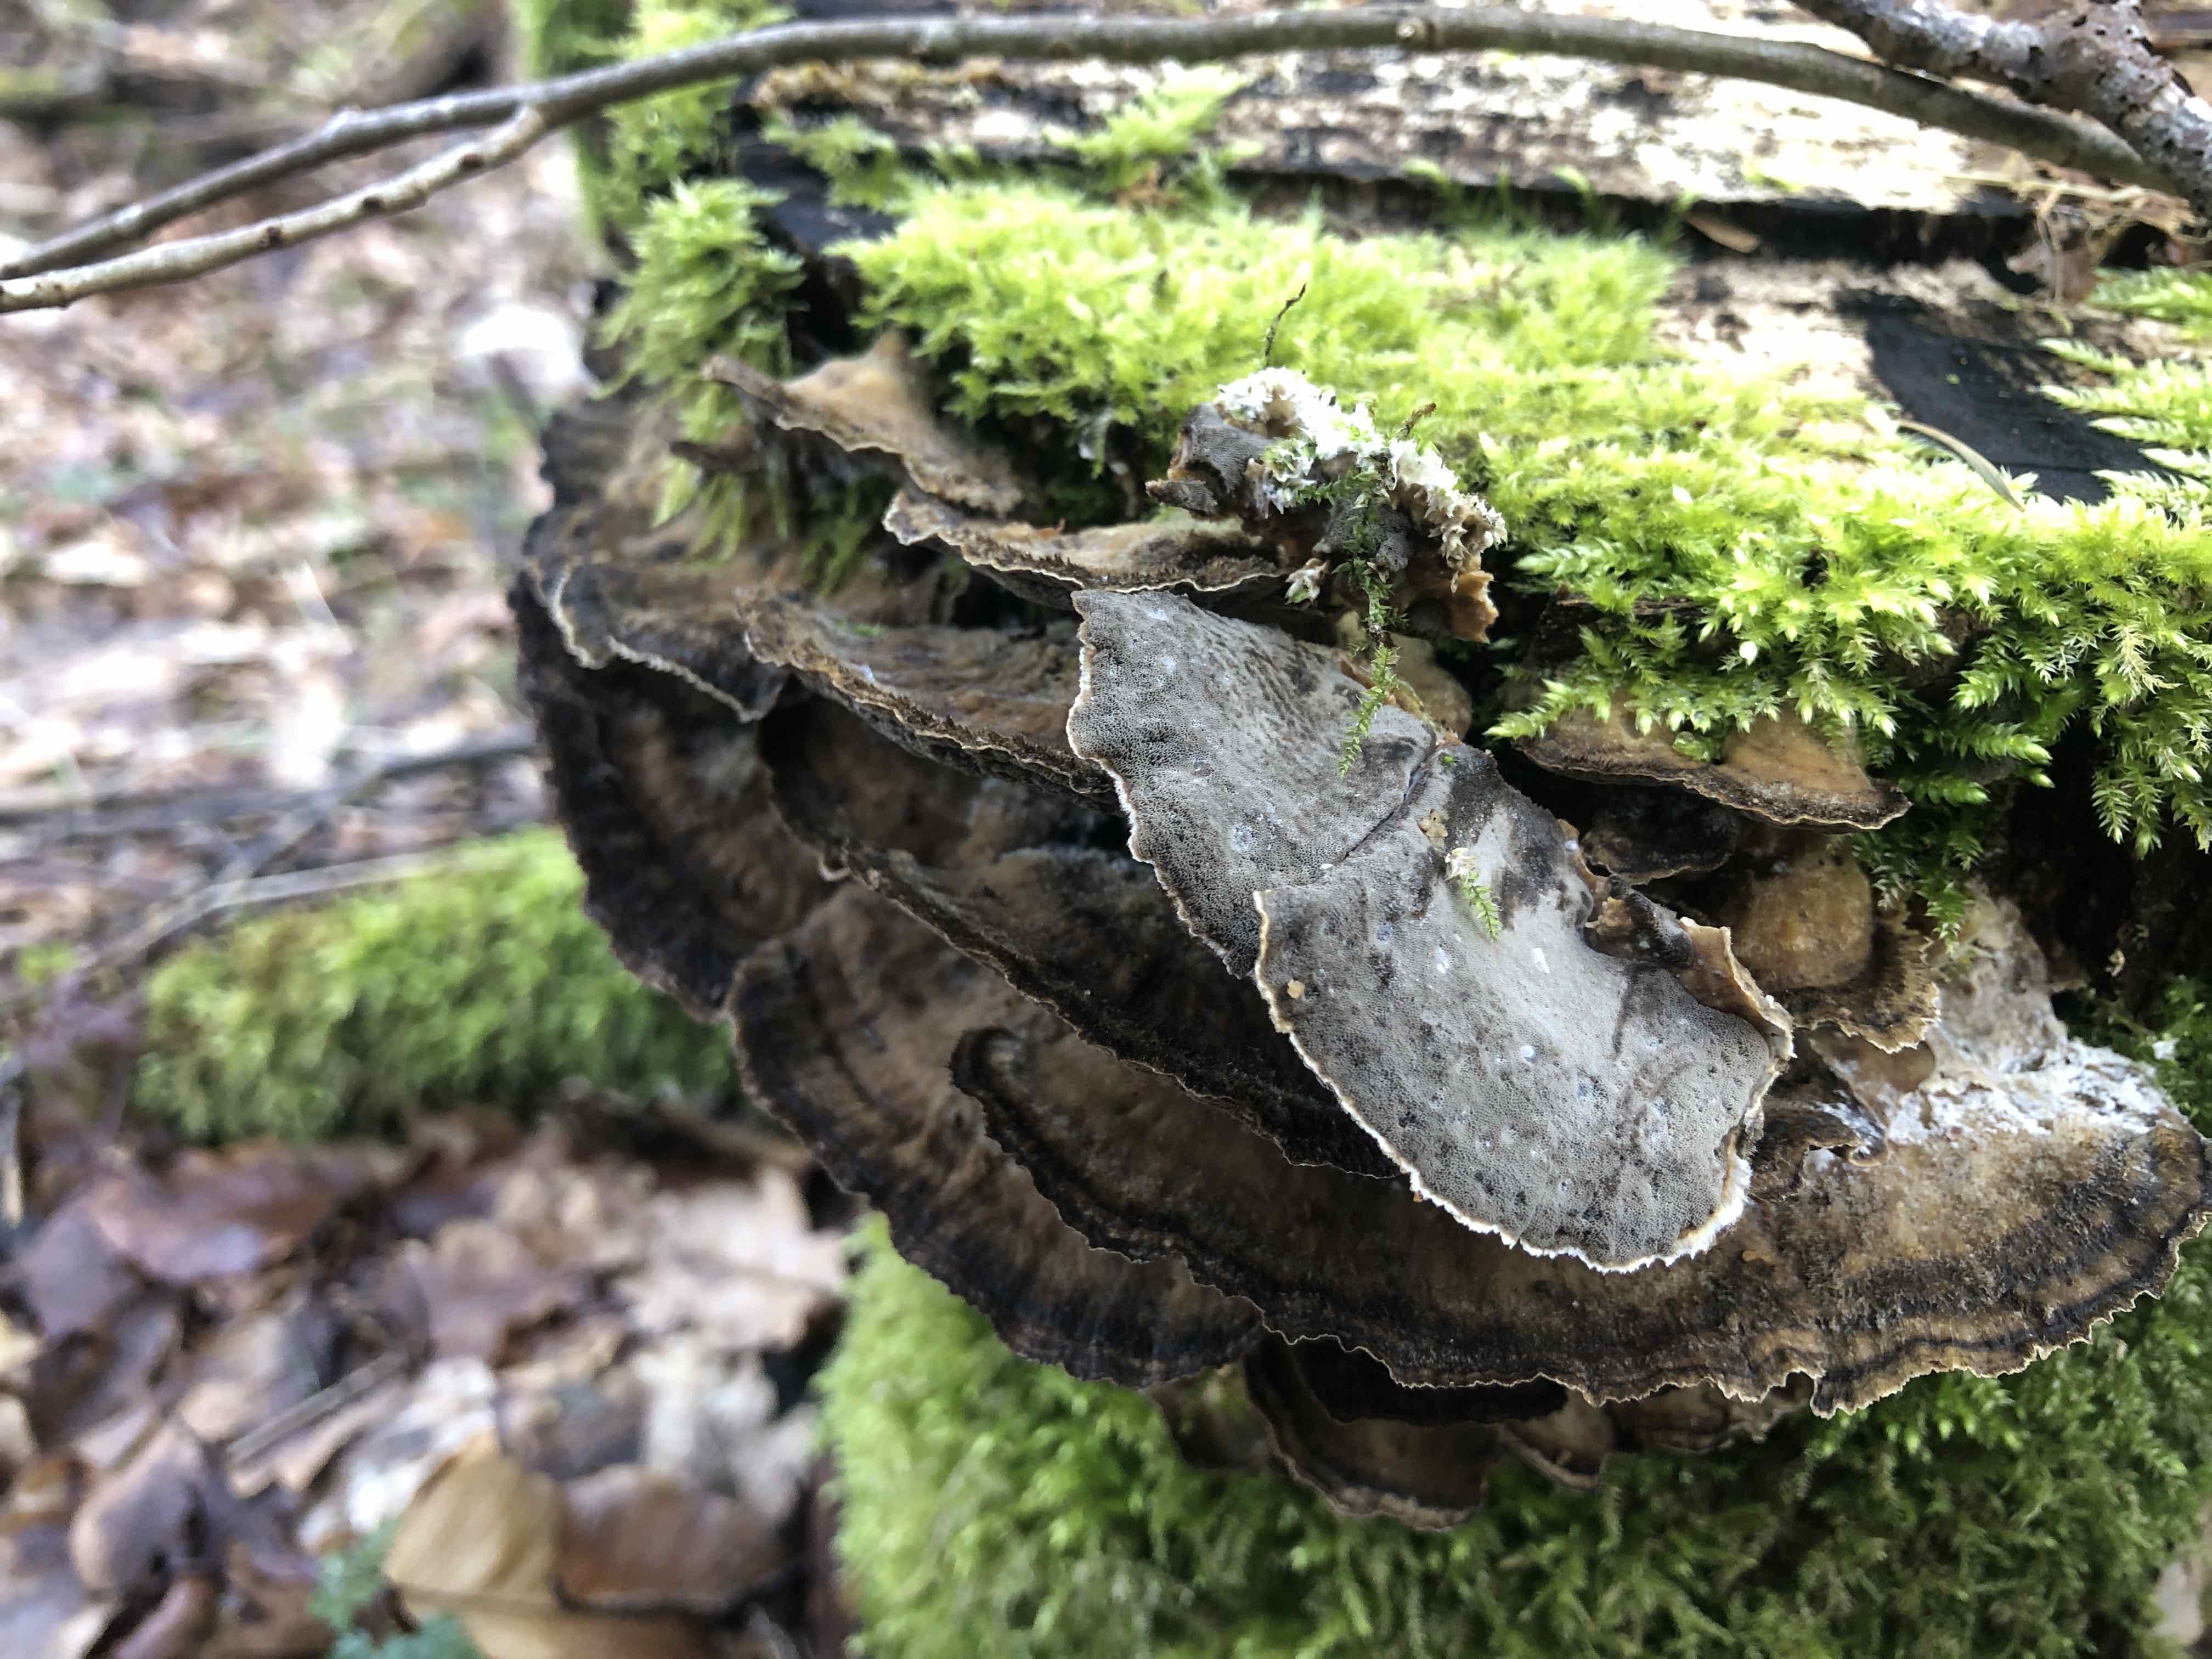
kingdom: Fungi
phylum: Basidiomycota
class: Agaricomycetes
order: Polyporales
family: Phanerochaetaceae
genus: Bjerkandera
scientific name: Bjerkandera adusta
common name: sveden sodporesvamp
